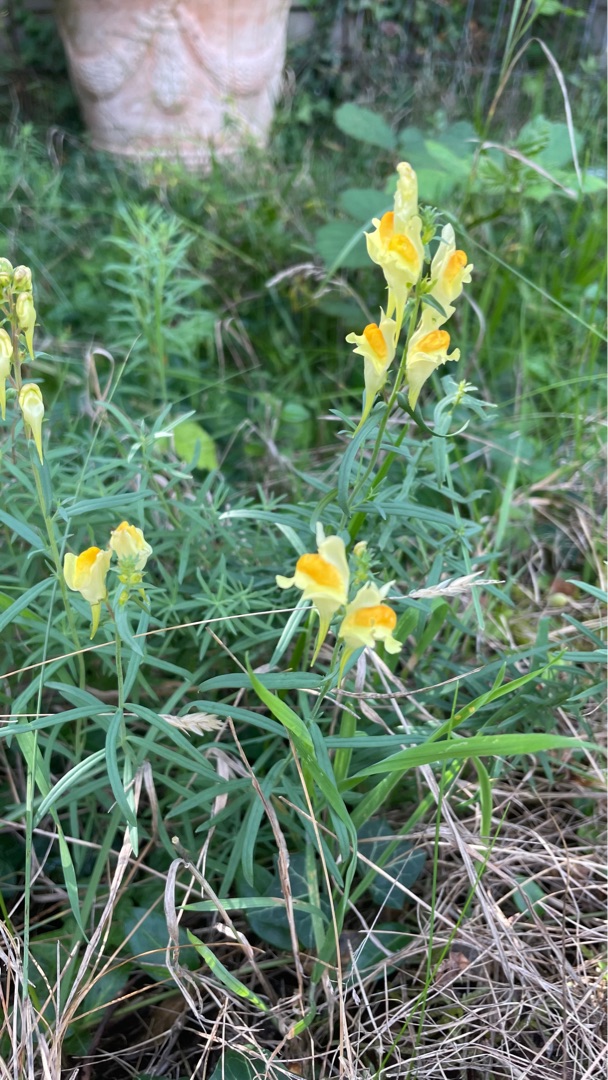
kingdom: Plantae
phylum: Tracheophyta
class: Magnoliopsida
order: Lamiales
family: Plantaginaceae
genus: Linaria
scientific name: Linaria vulgaris
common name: Almindelig torskemund
